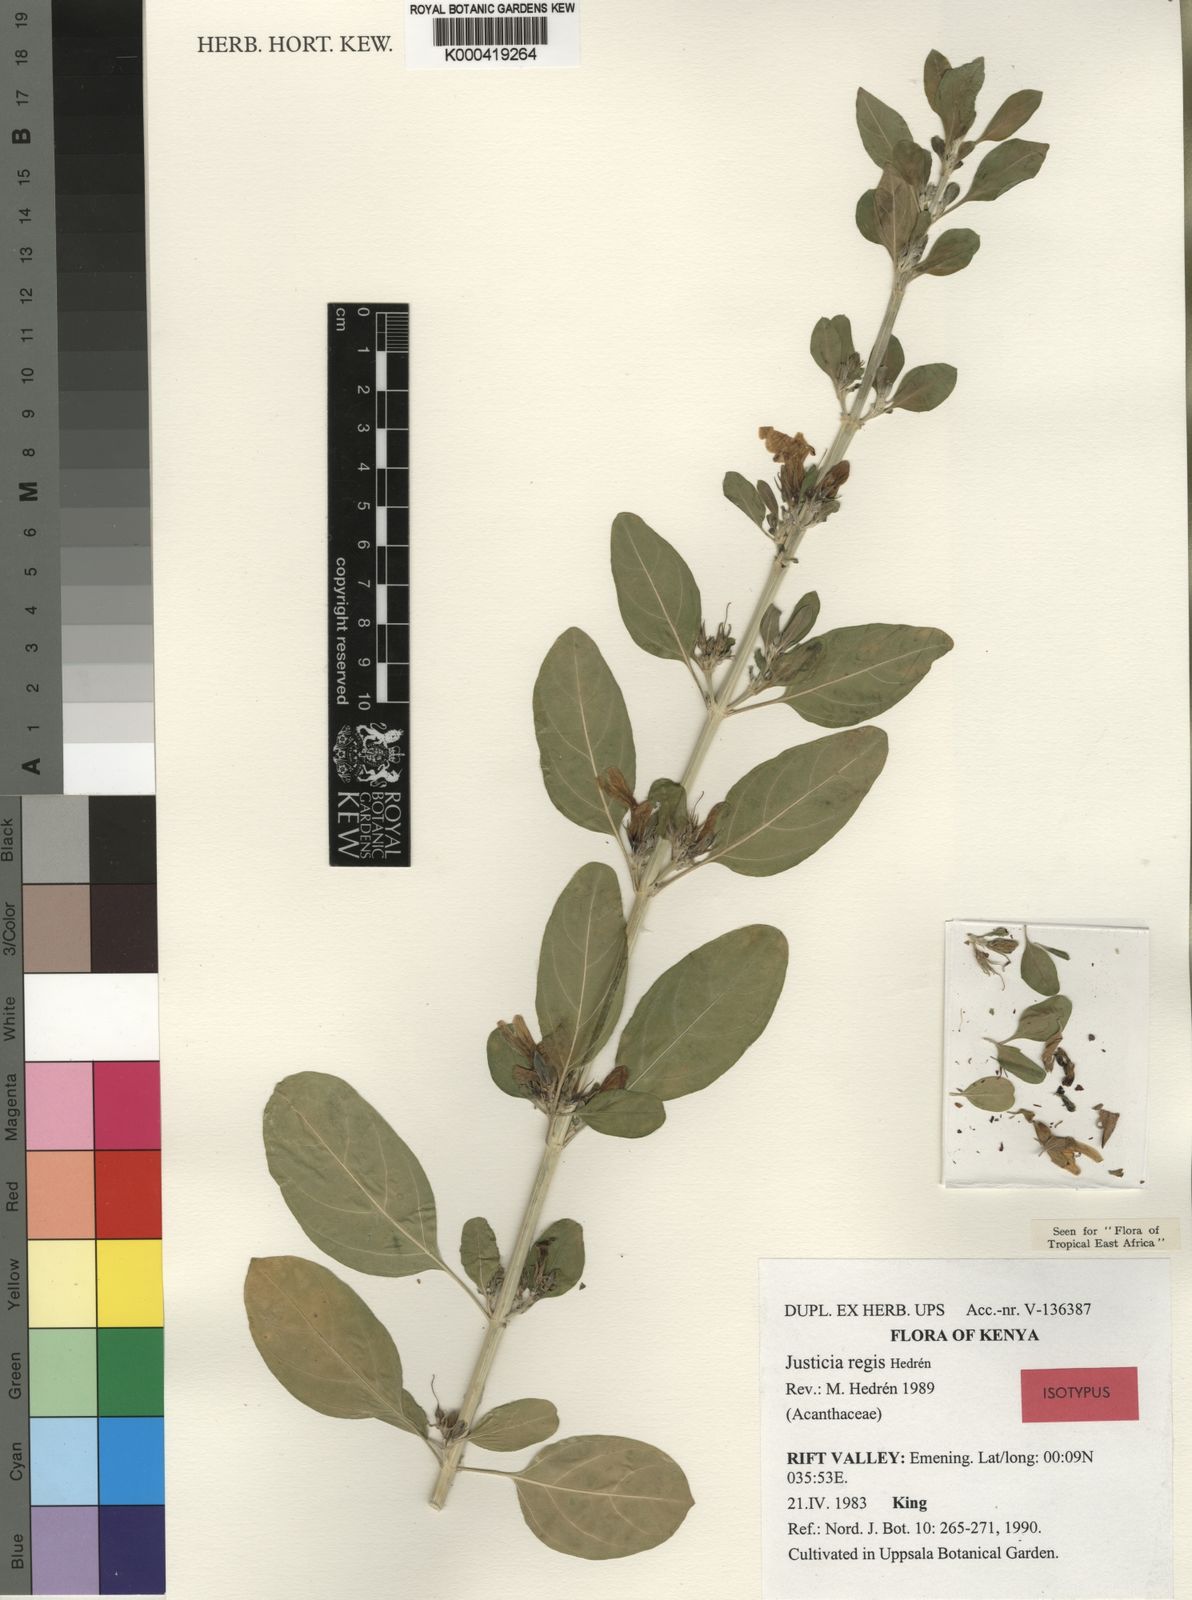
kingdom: Plantae
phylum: Tracheophyta
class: Magnoliopsida
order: Lamiales
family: Acanthaceae
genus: Justicia
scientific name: Justicia
